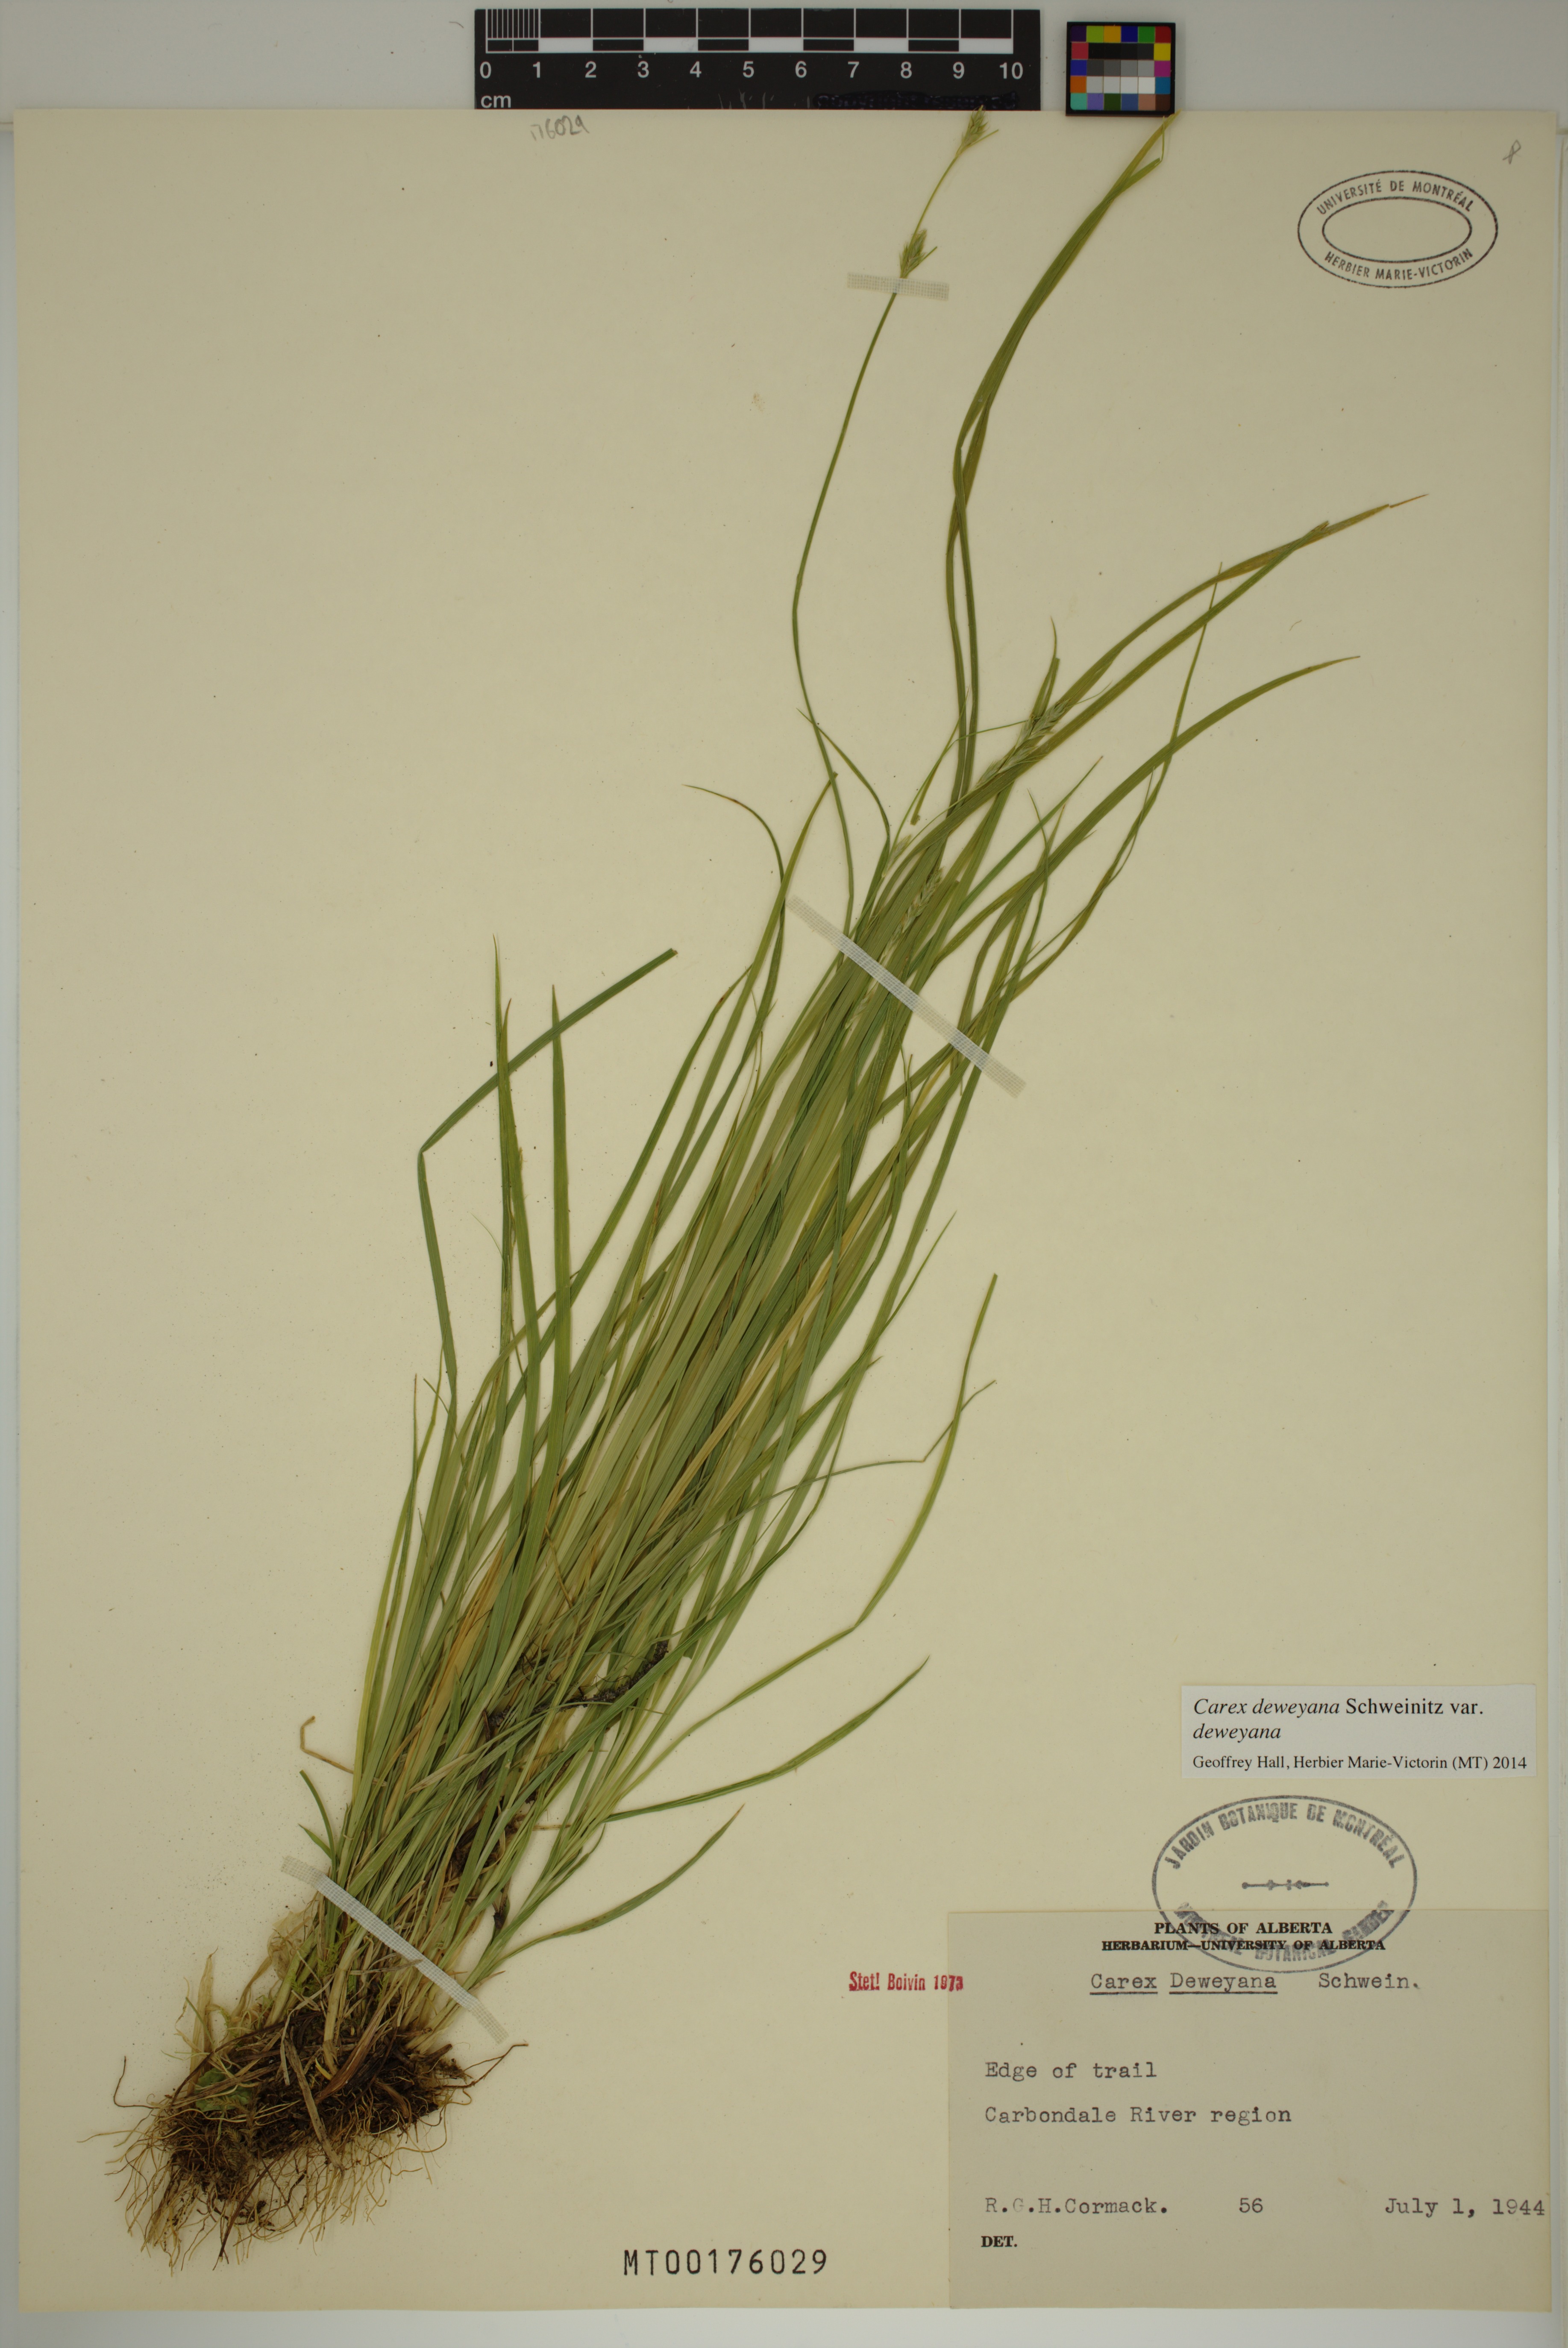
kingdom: Plantae
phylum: Tracheophyta
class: Liliopsida
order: Poales
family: Cyperaceae
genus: Carex
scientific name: Carex deweyana
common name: Dewey's sedge
